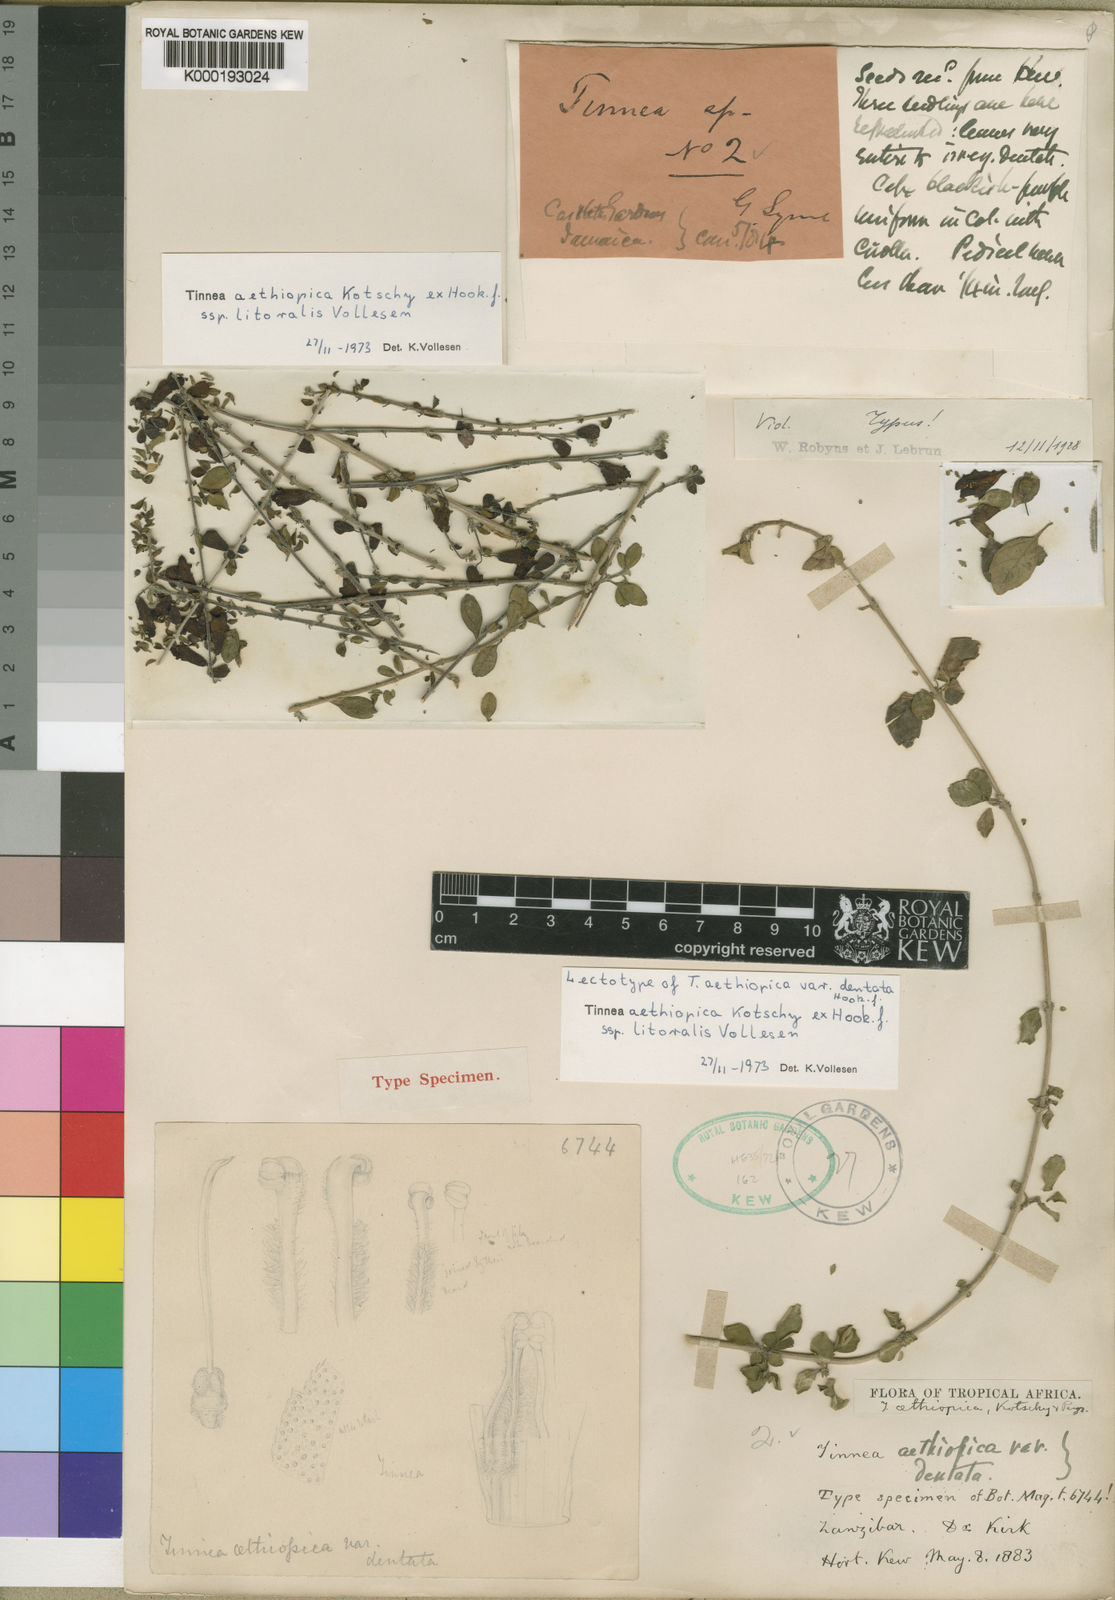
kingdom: Plantae
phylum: Tracheophyta
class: Magnoliopsida
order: Lamiales
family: Lamiaceae
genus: Tinnea
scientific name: Tinnea aethiopica
